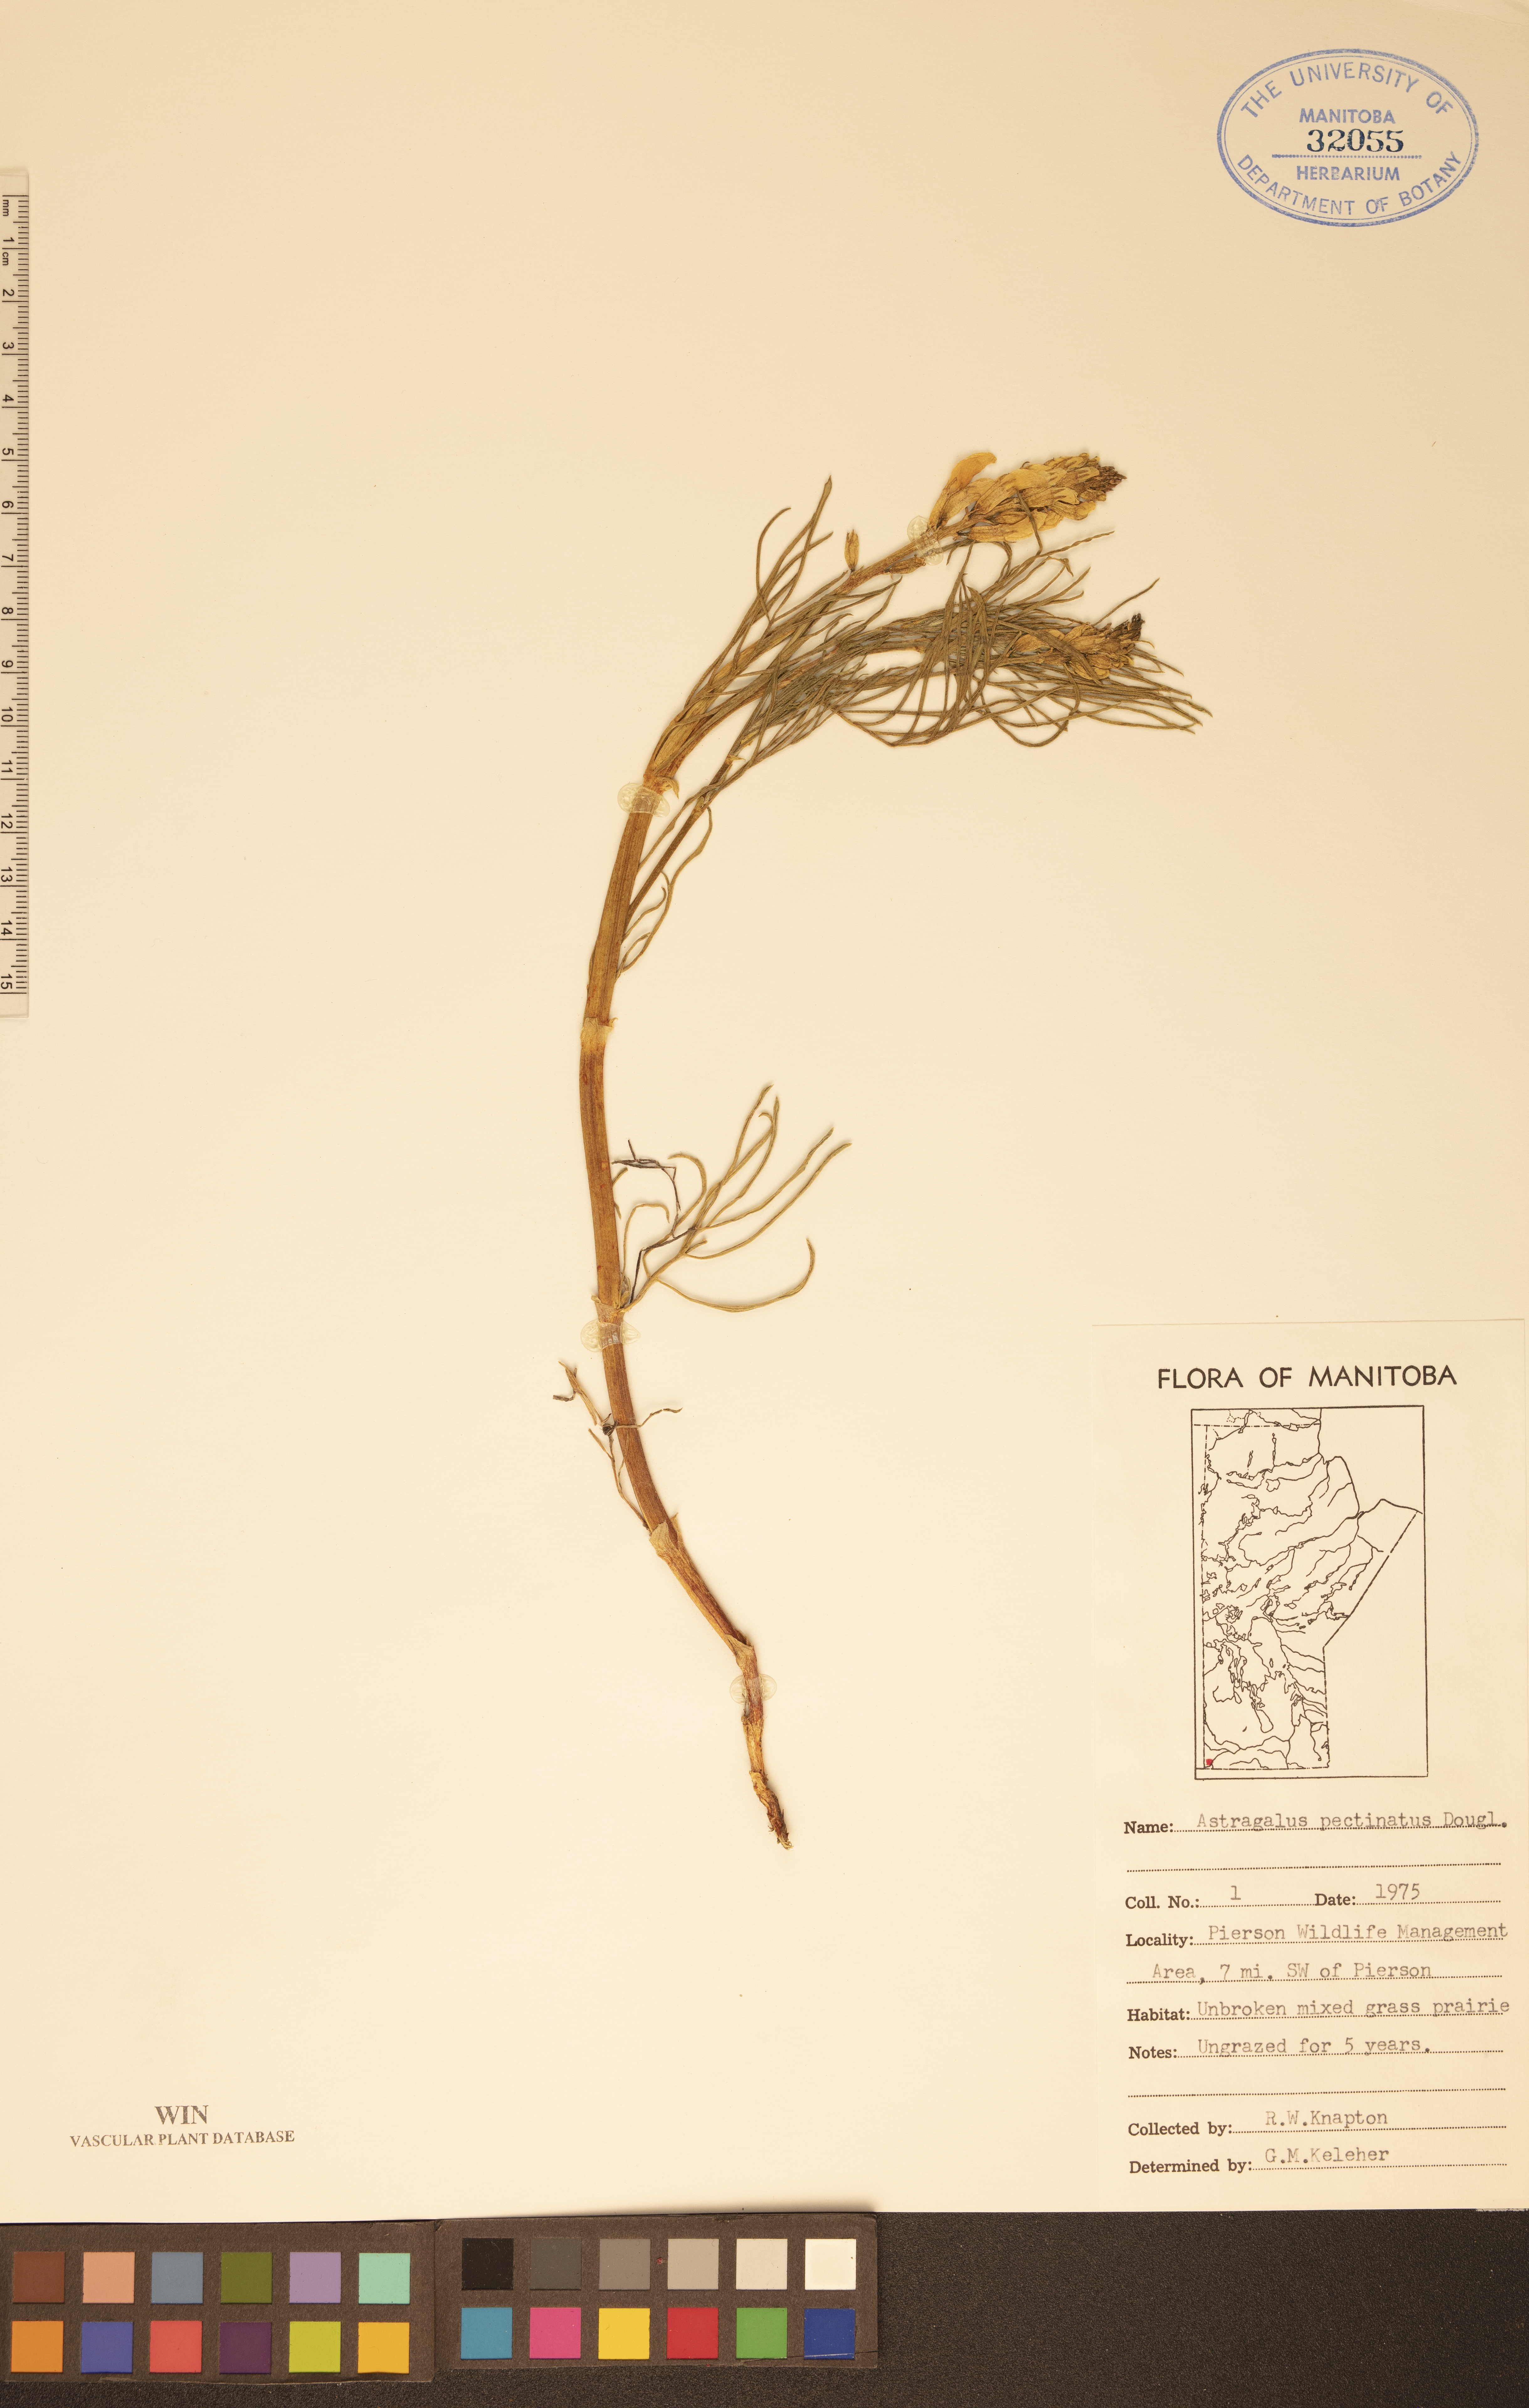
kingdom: Plantae
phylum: Tracheophyta
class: Magnoliopsida
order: Fabales
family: Fabaceae
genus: Astragalus
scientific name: Astragalus pectinatus
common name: Tine-leaf milk-vetch
